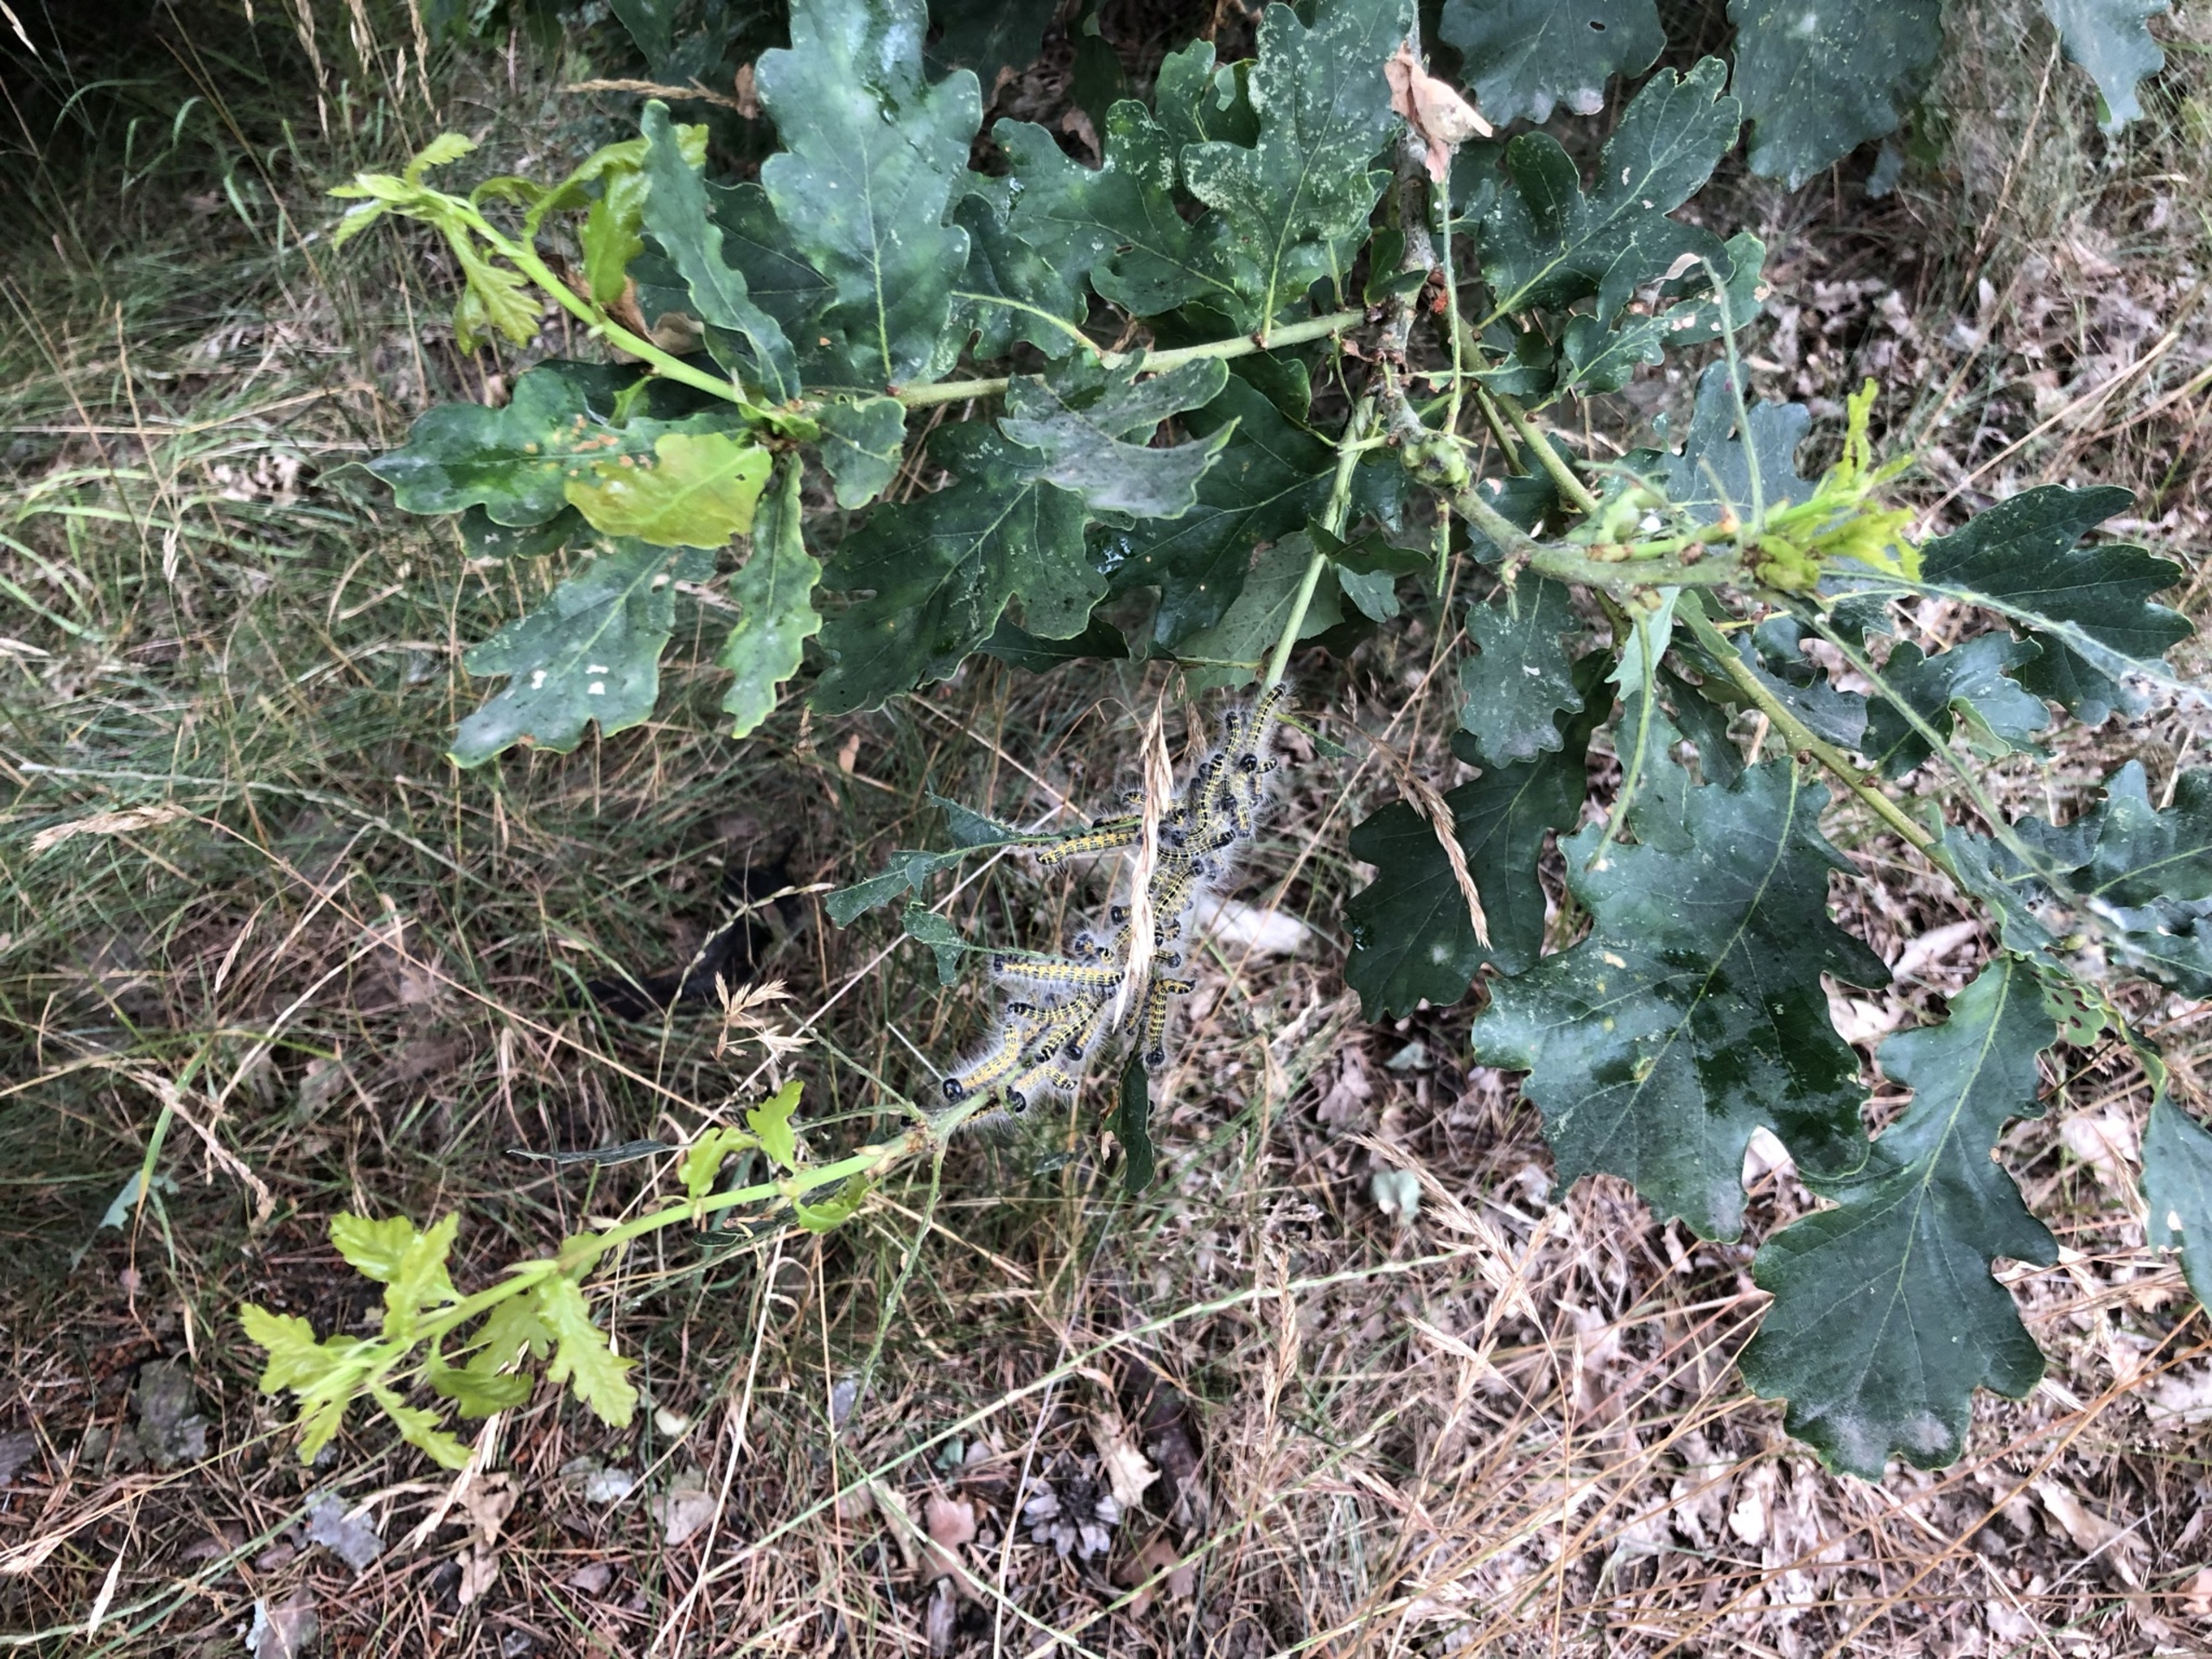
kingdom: Animalia
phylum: Arthropoda
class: Insecta
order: Lepidoptera
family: Notodontidae
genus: Phalera
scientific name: Phalera bucephala
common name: Måneplet
